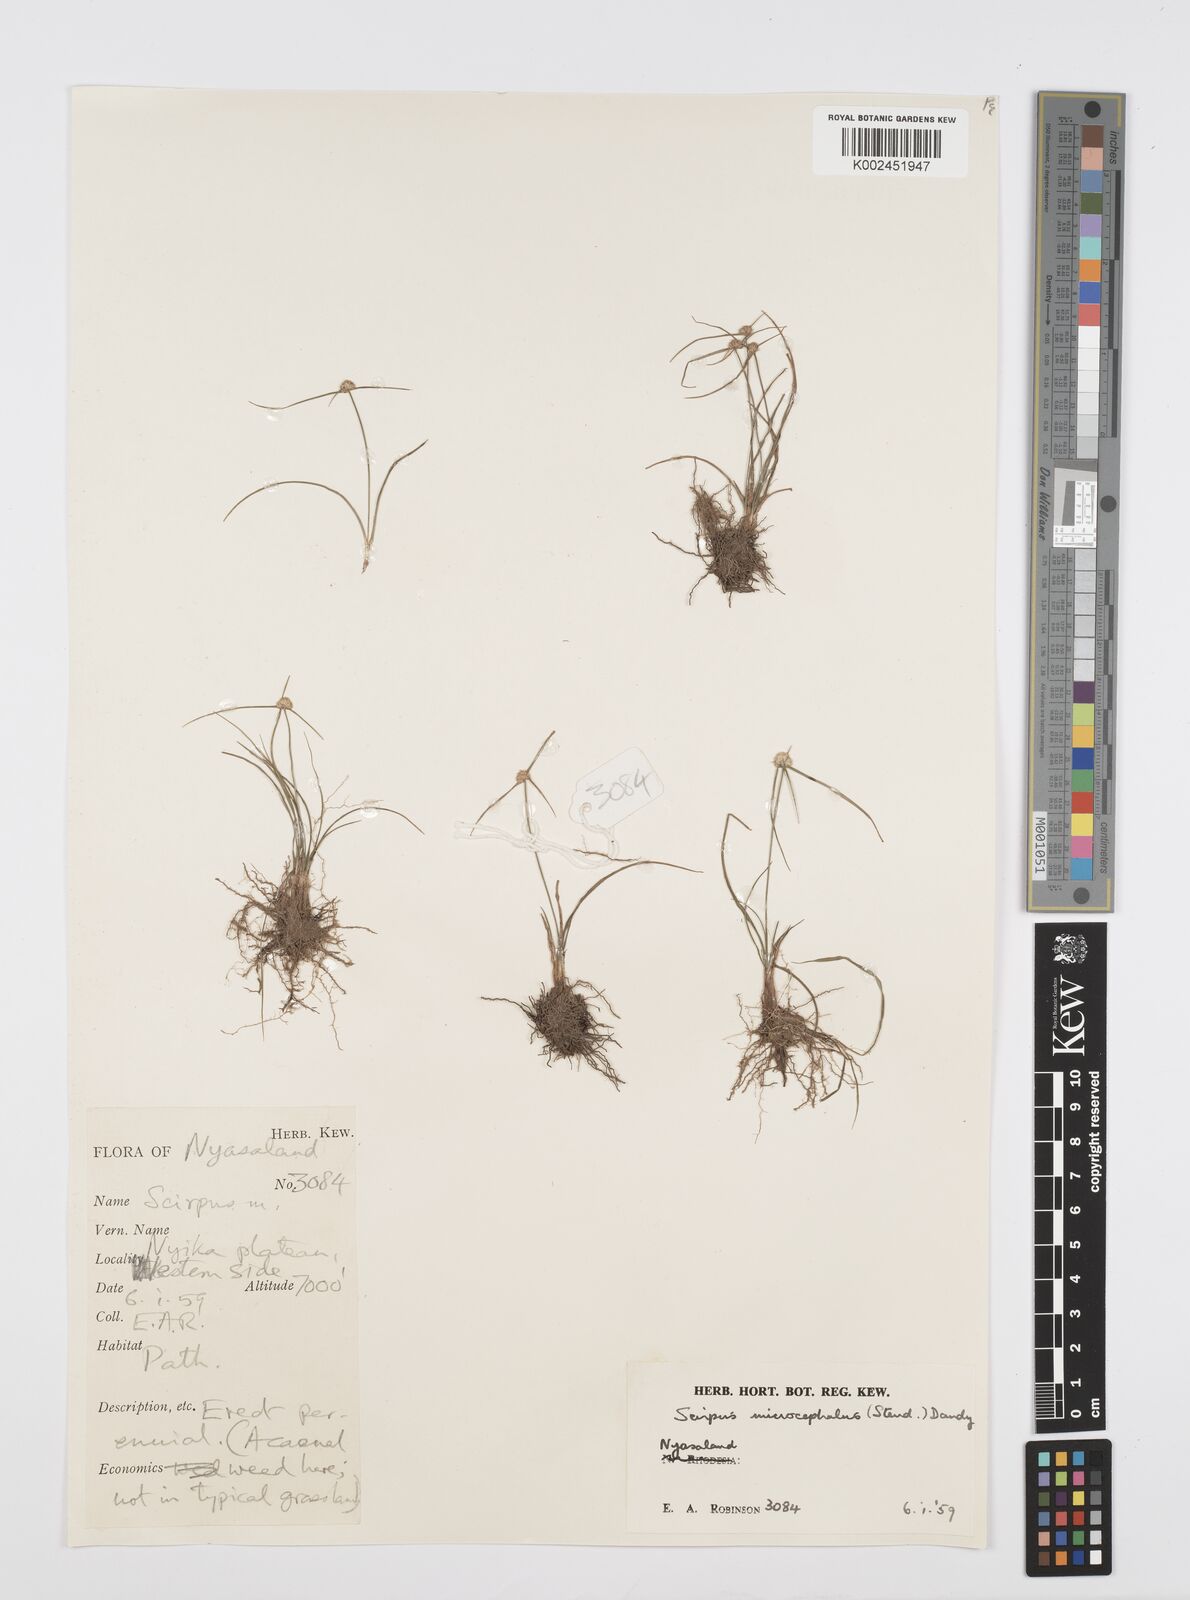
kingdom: Plantae
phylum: Tracheophyta
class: Liliopsida
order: Poales
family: Cyperaceae
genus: Cyperus
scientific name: Cyperus microcephalus
